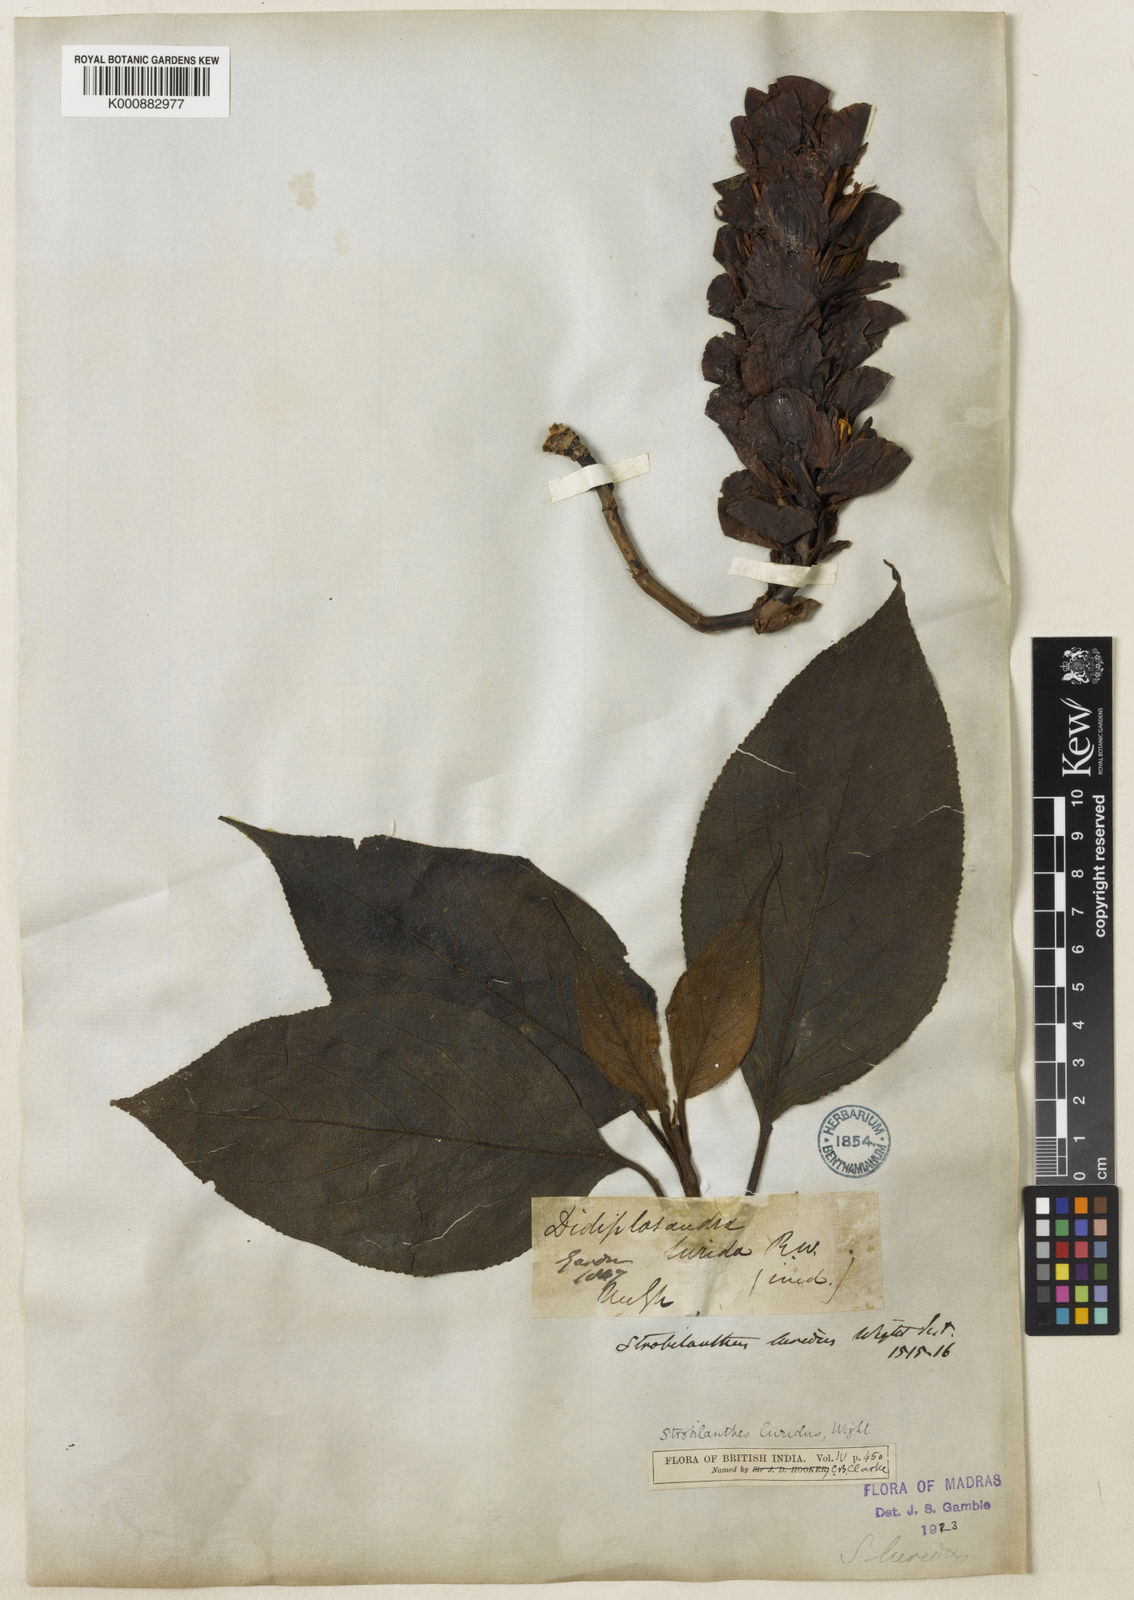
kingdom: Plantae
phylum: Tracheophyta
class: Magnoliopsida
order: Lamiales
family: Acanthaceae
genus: Strobilanthes
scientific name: Strobilanthes lurida
